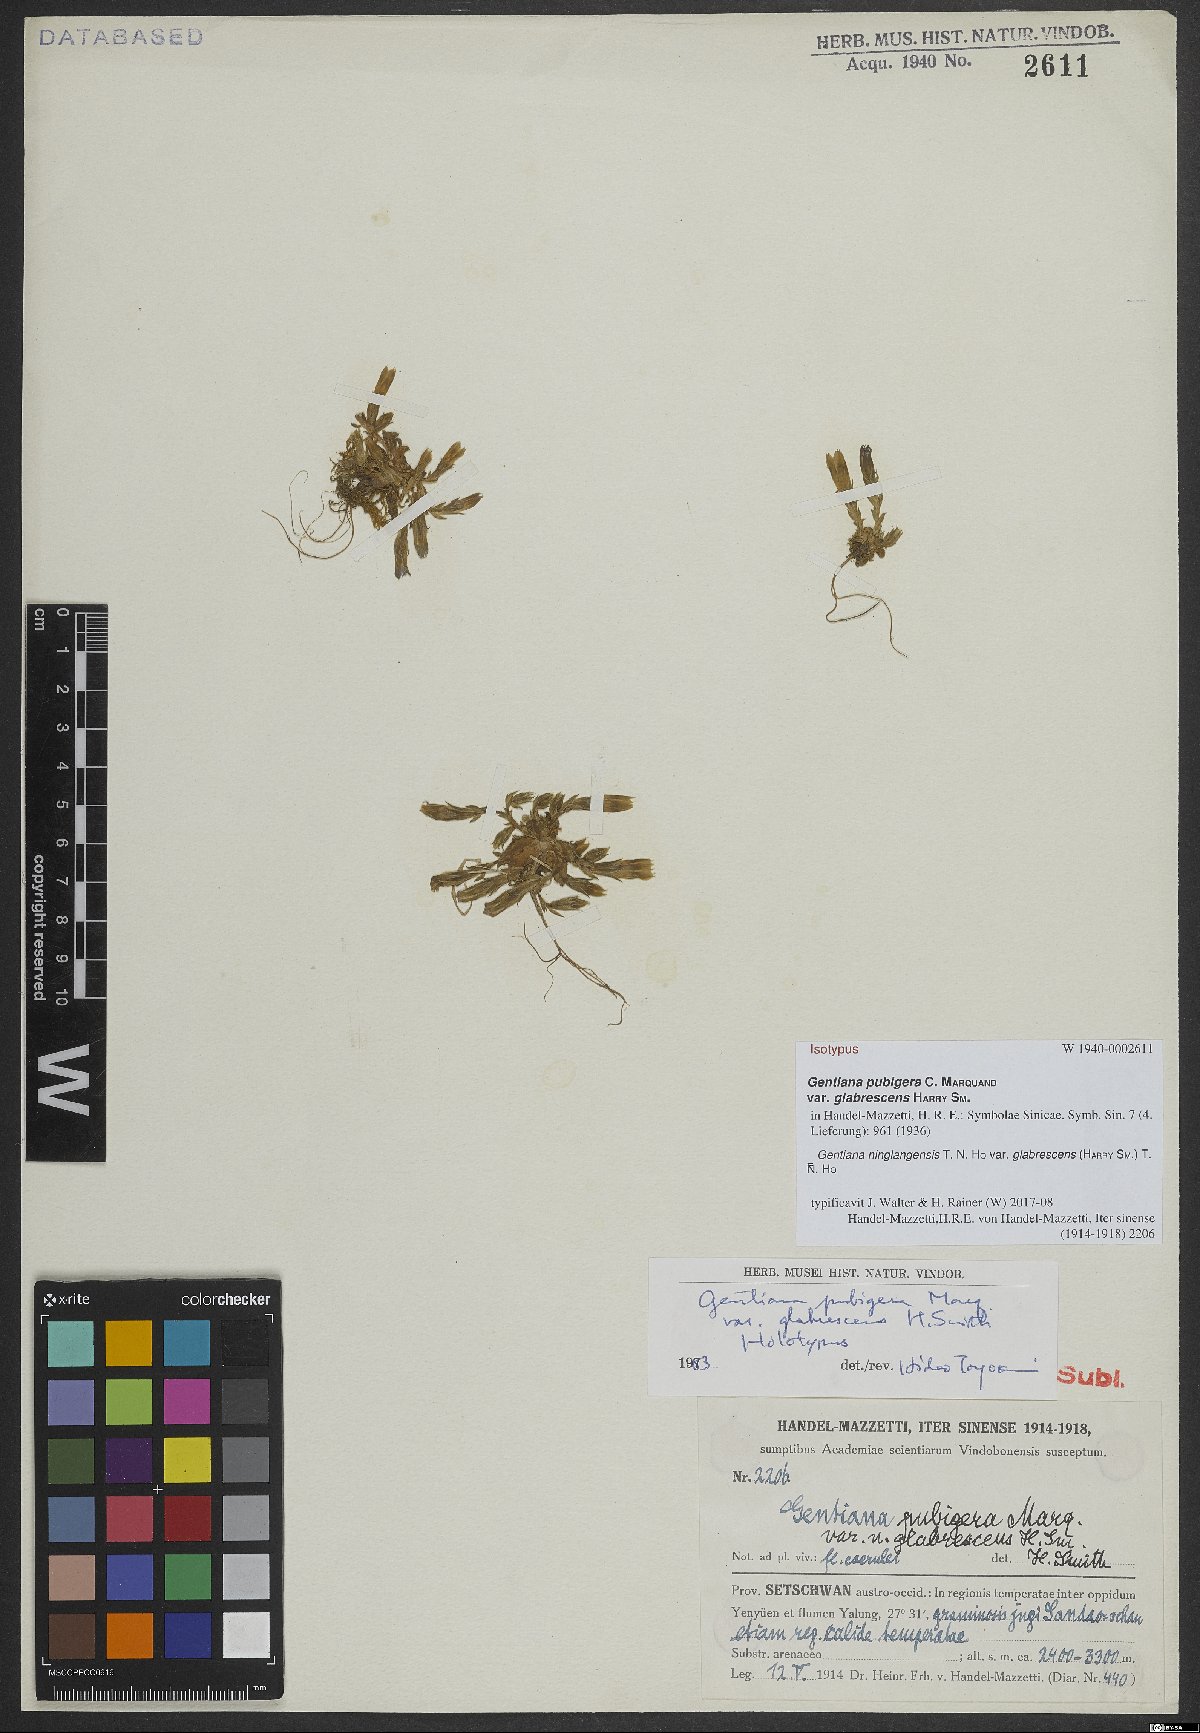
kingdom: Plantae
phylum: Tracheophyta
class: Magnoliopsida
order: Gentianales
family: Gentianaceae
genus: Gentiana
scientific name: Gentiana pubigera
